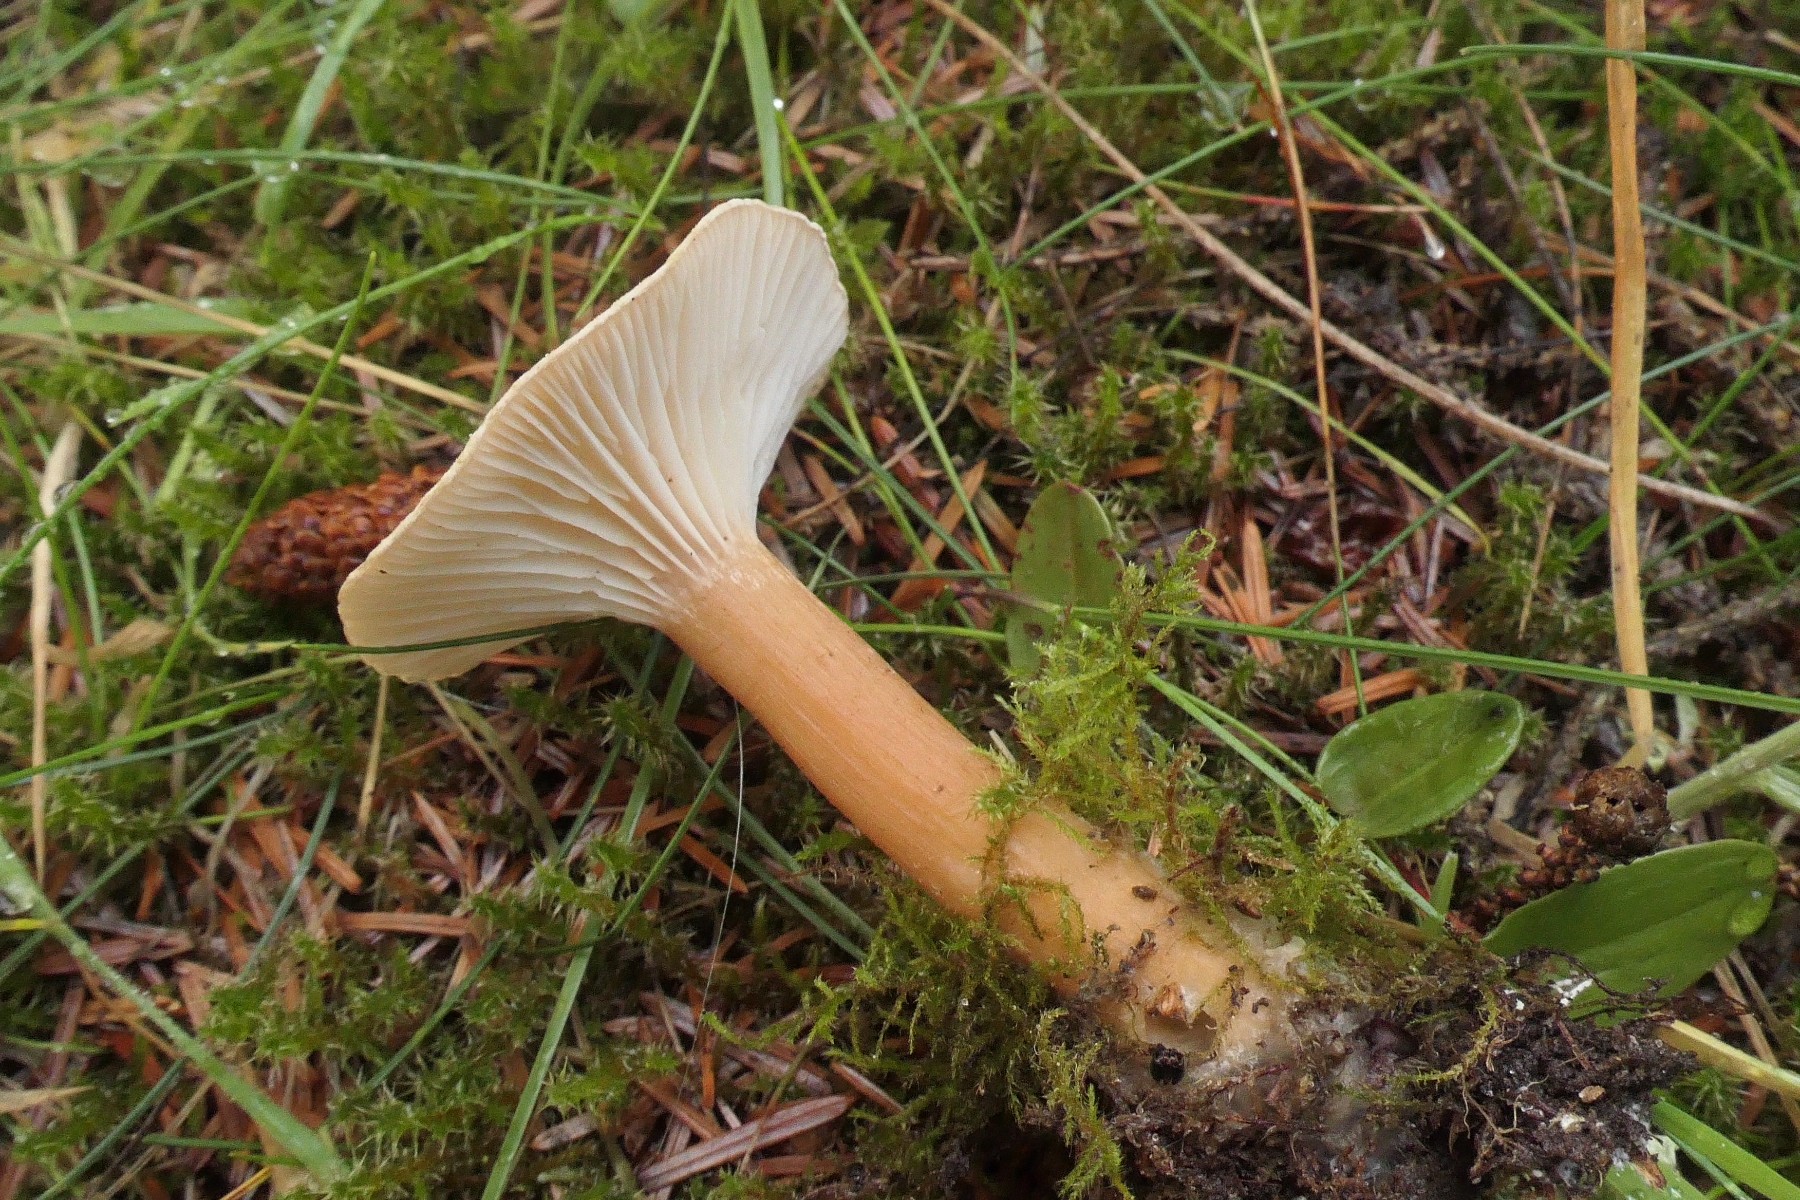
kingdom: Fungi
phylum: Basidiomycota
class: Agaricomycetes
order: Agaricales
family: Tricholomataceae
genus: Infundibulicybe
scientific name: Infundibulicybe squamulosa
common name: småskællet tragthat
